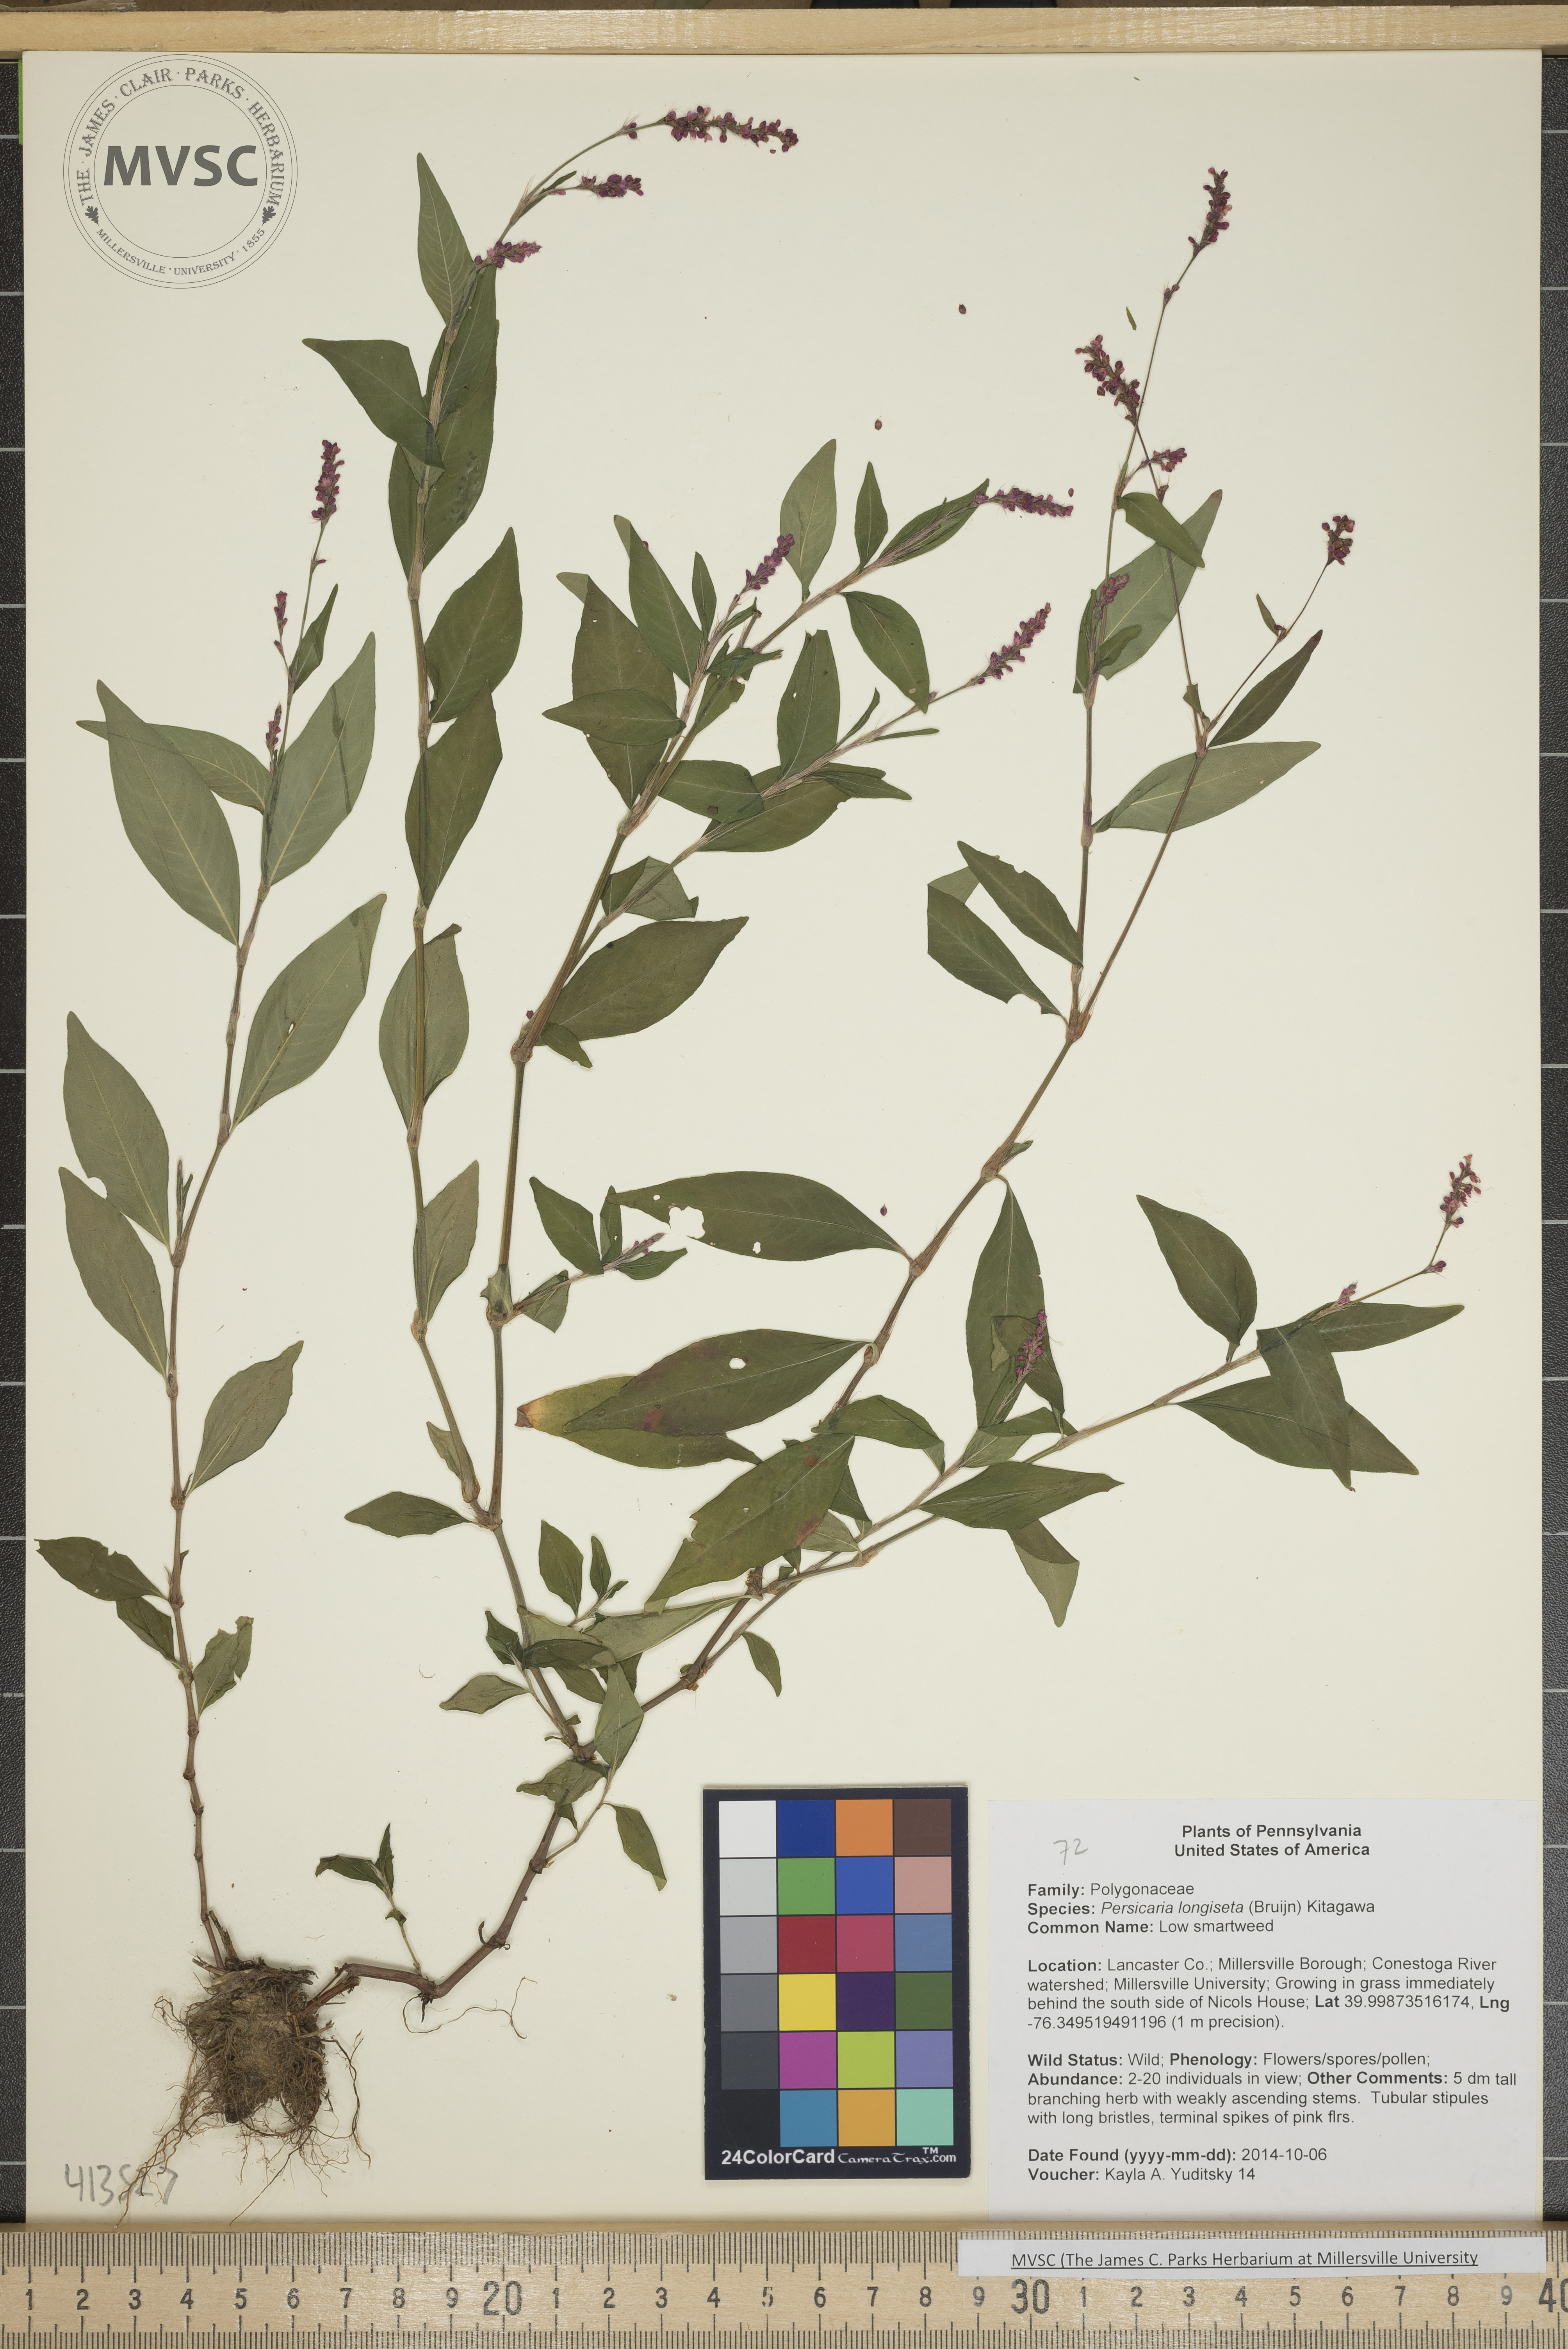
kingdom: Plantae
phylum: Tracheophyta
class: Magnoliopsida
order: Caryophyllales
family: Polygonaceae
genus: Persicaria
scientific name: Persicaria longiseta
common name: Low smartweed
